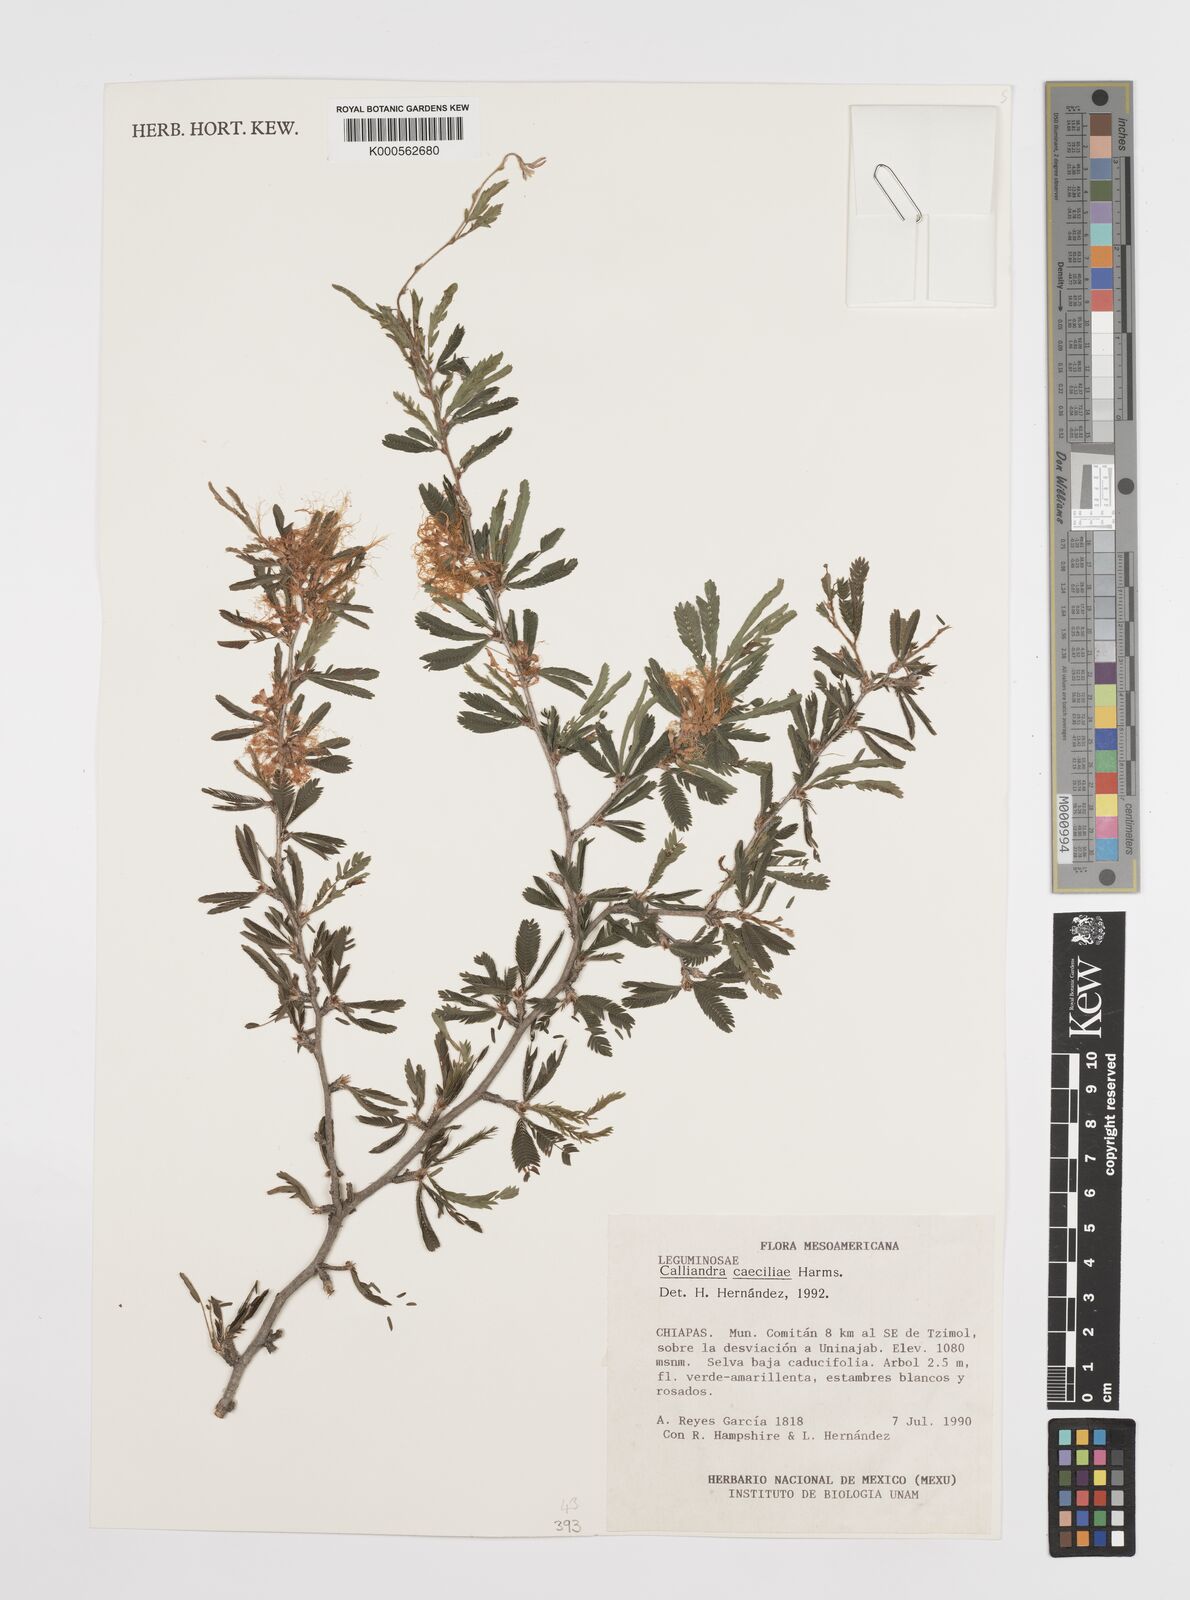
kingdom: Plantae
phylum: Tracheophyta
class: Magnoliopsida
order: Fabales
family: Fabaceae
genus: Calliandra
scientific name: Calliandra caeciliae
